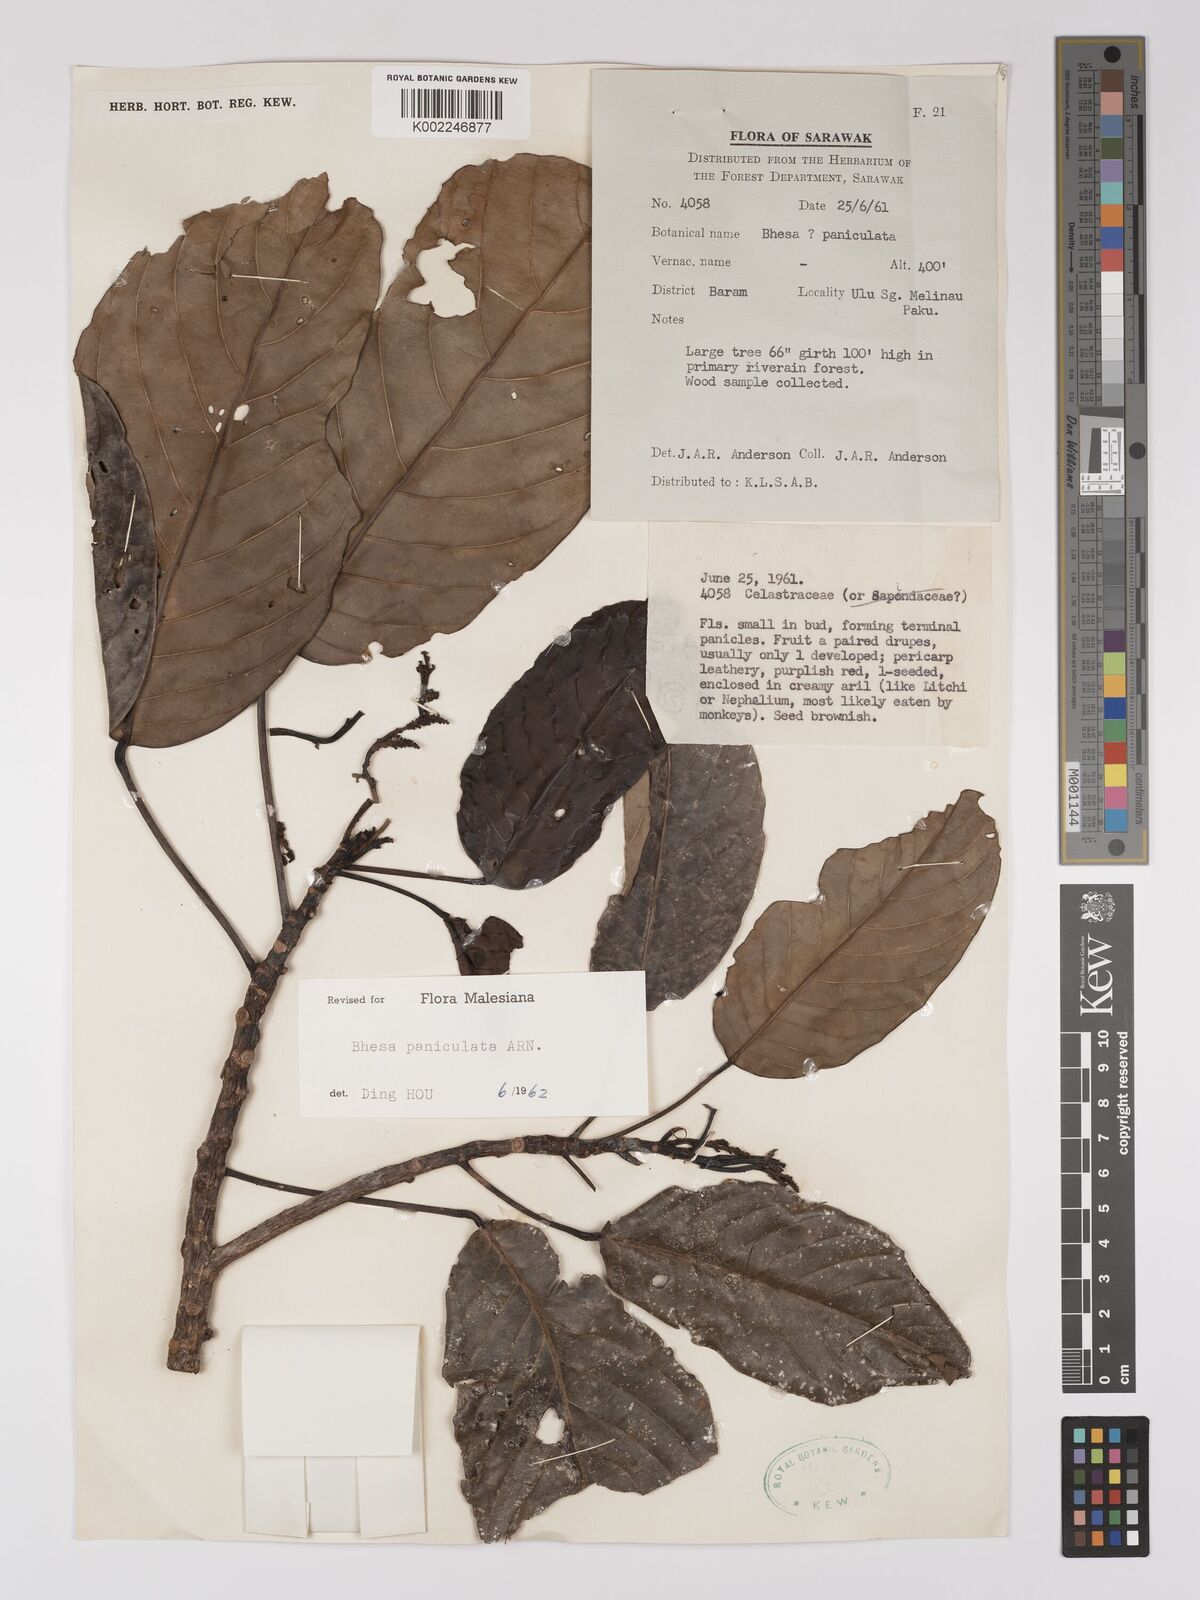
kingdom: Plantae
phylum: Tracheophyta
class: Magnoliopsida
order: Malpighiales
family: Centroplacaceae
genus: Bhesa
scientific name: Bhesa paniculata
